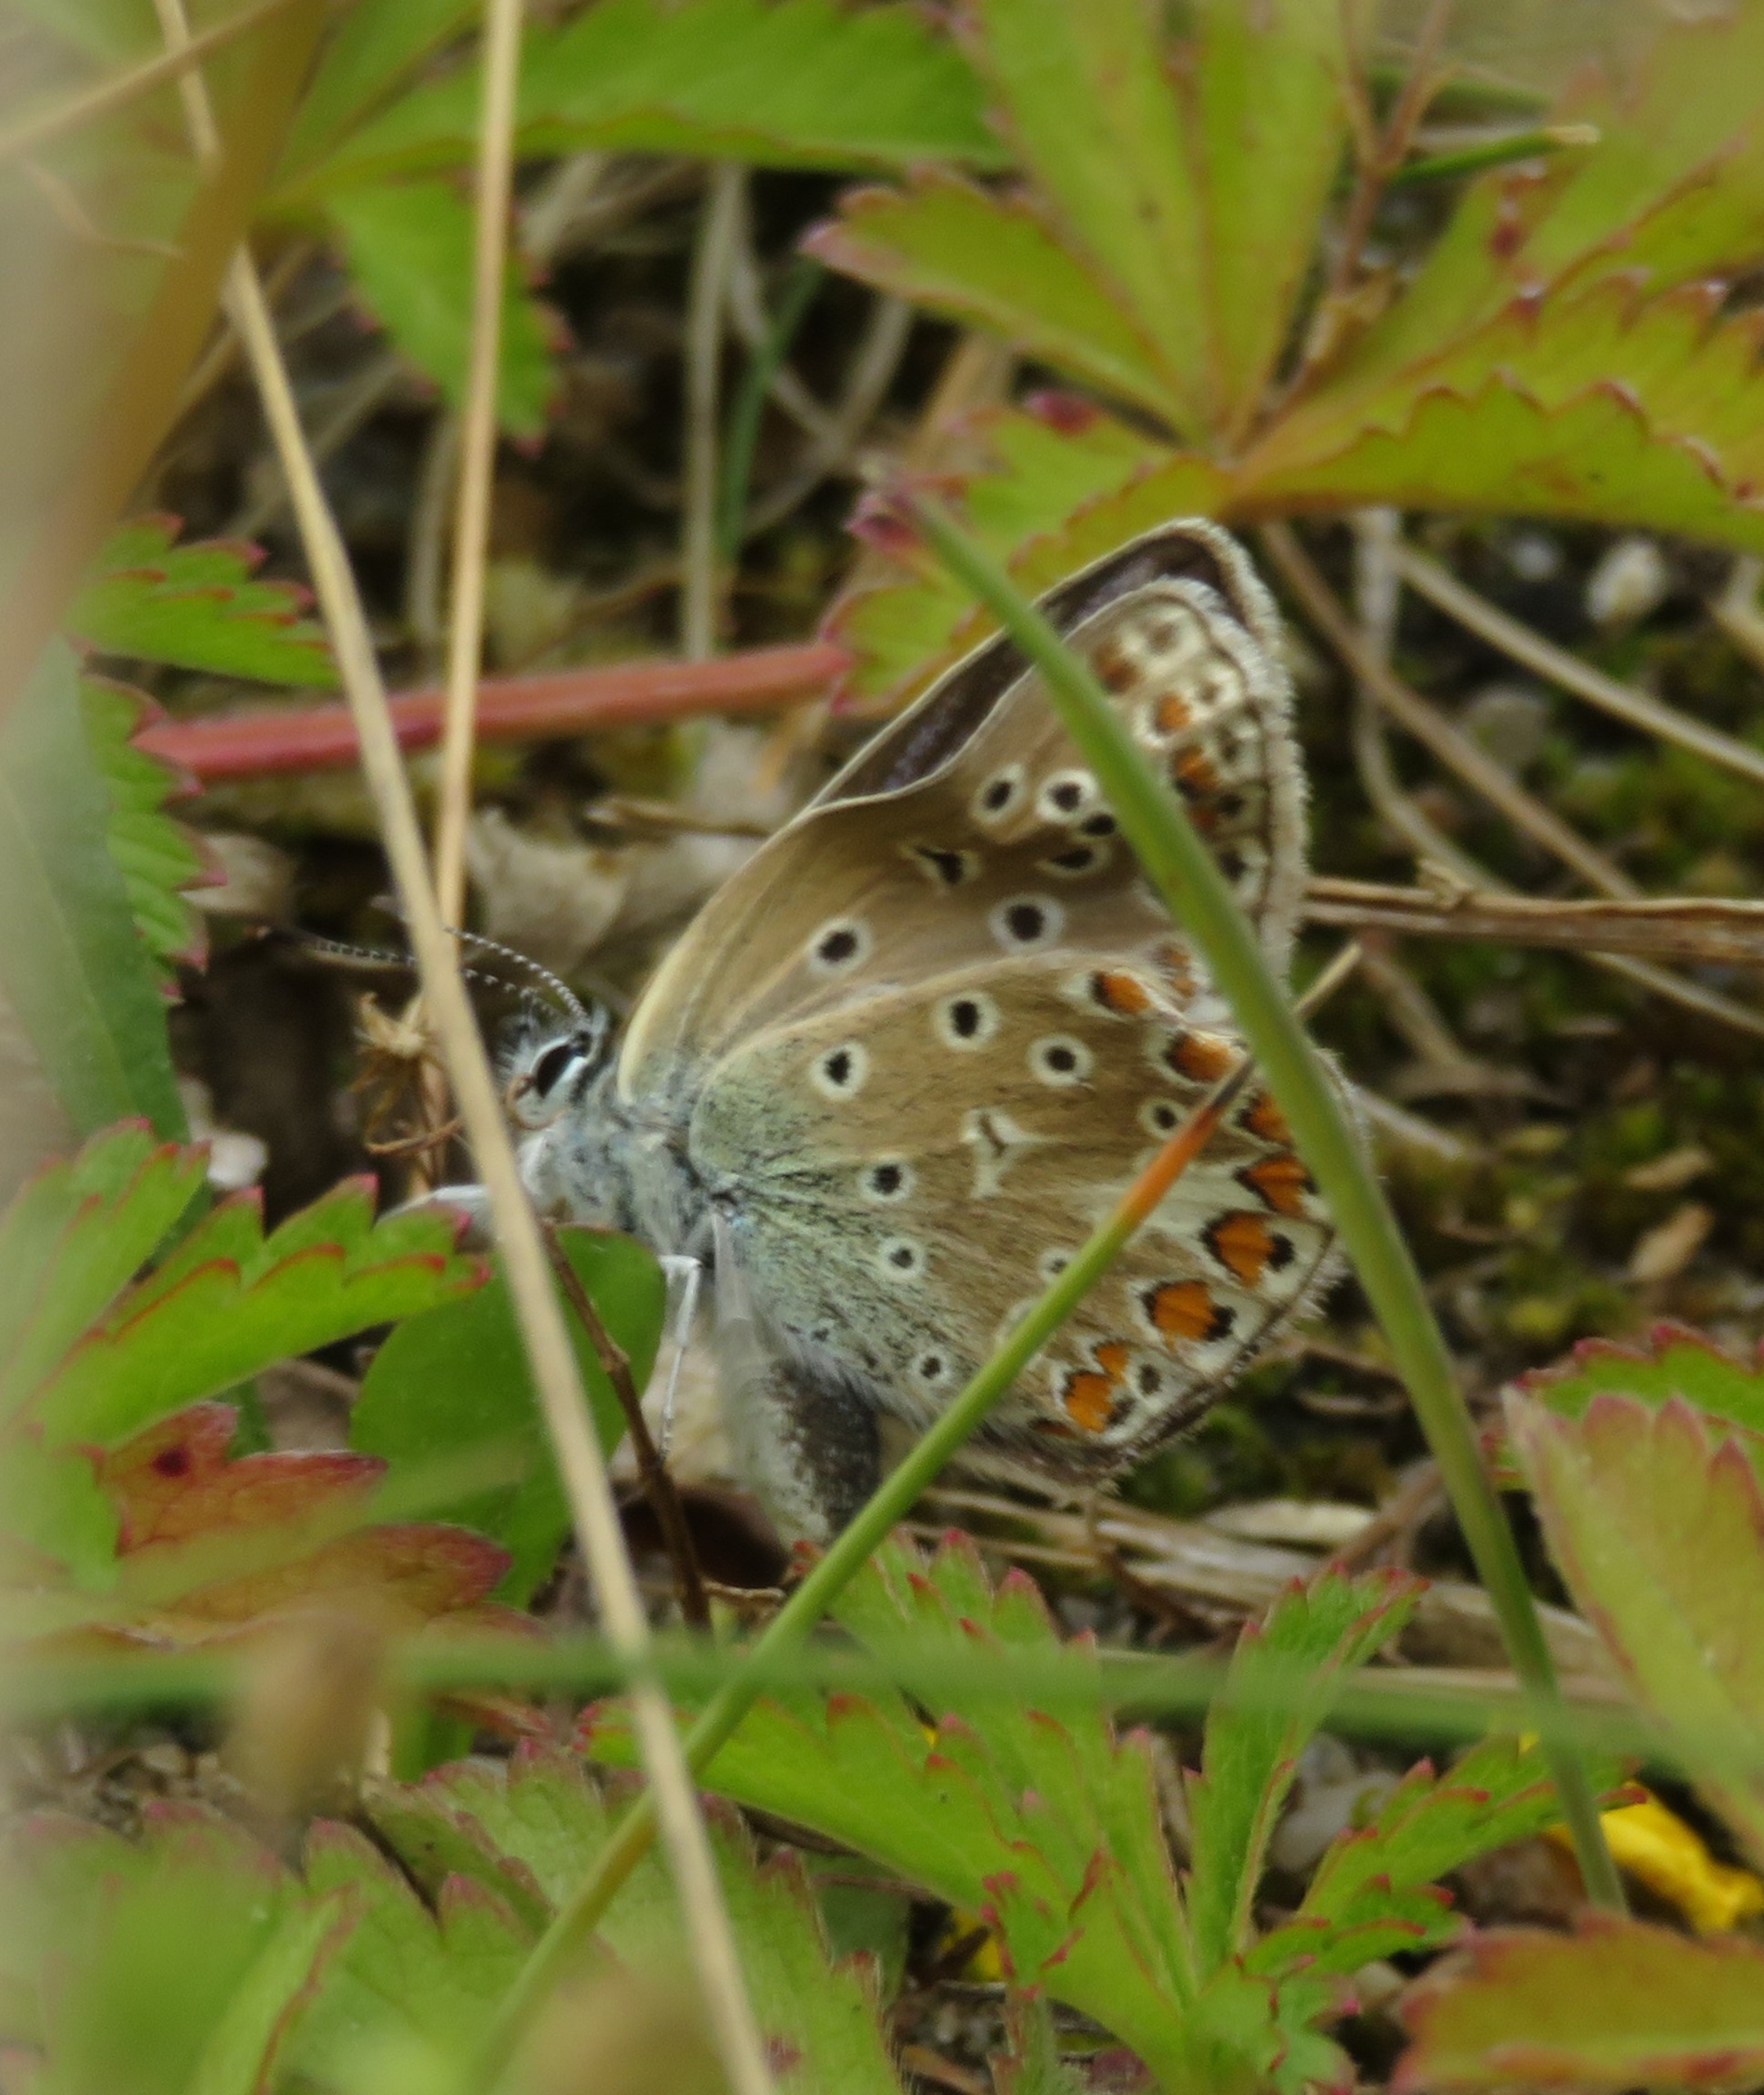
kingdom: Animalia
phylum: Arthropoda
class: Insecta
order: Lepidoptera
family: Lycaenidae
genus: Polyommatus
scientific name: Polyommatus icarus
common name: Almindelig blåfugl
